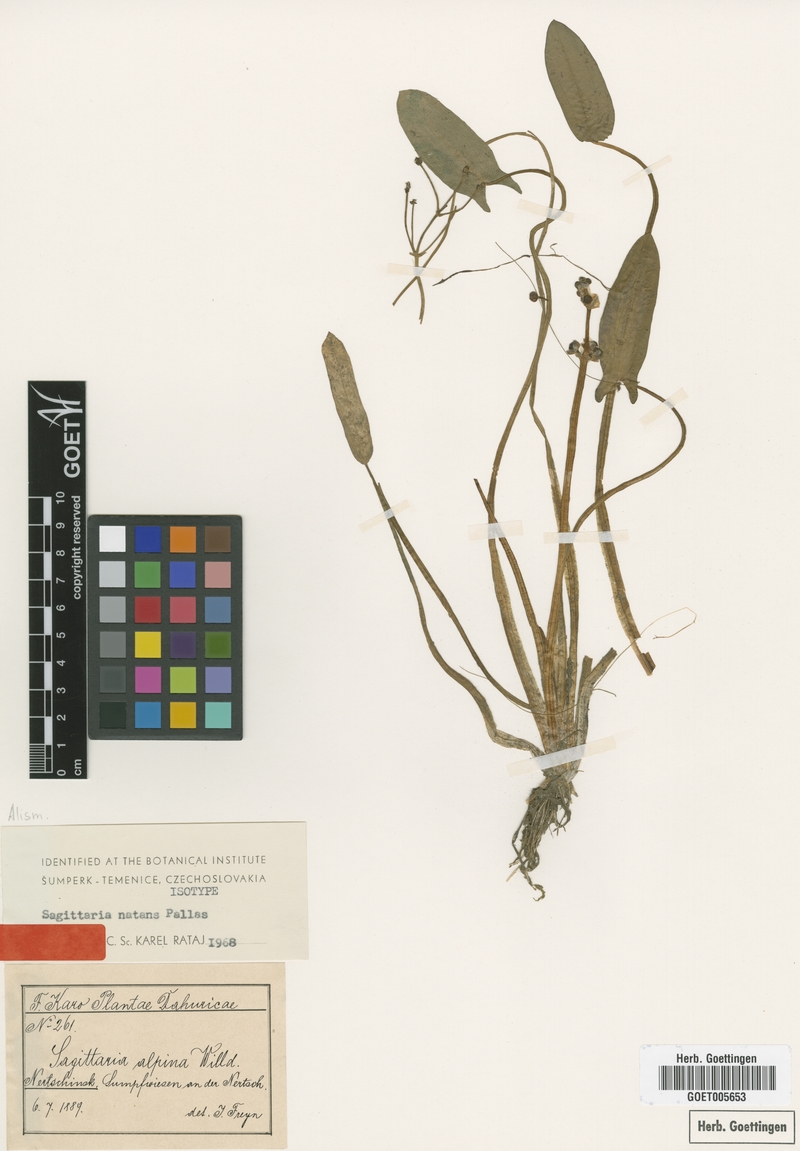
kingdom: Plantae
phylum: Tracheophyta
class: Liliopsida
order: Alismatales
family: Alismataceae
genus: Sagittaria
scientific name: Sagittaria natans
